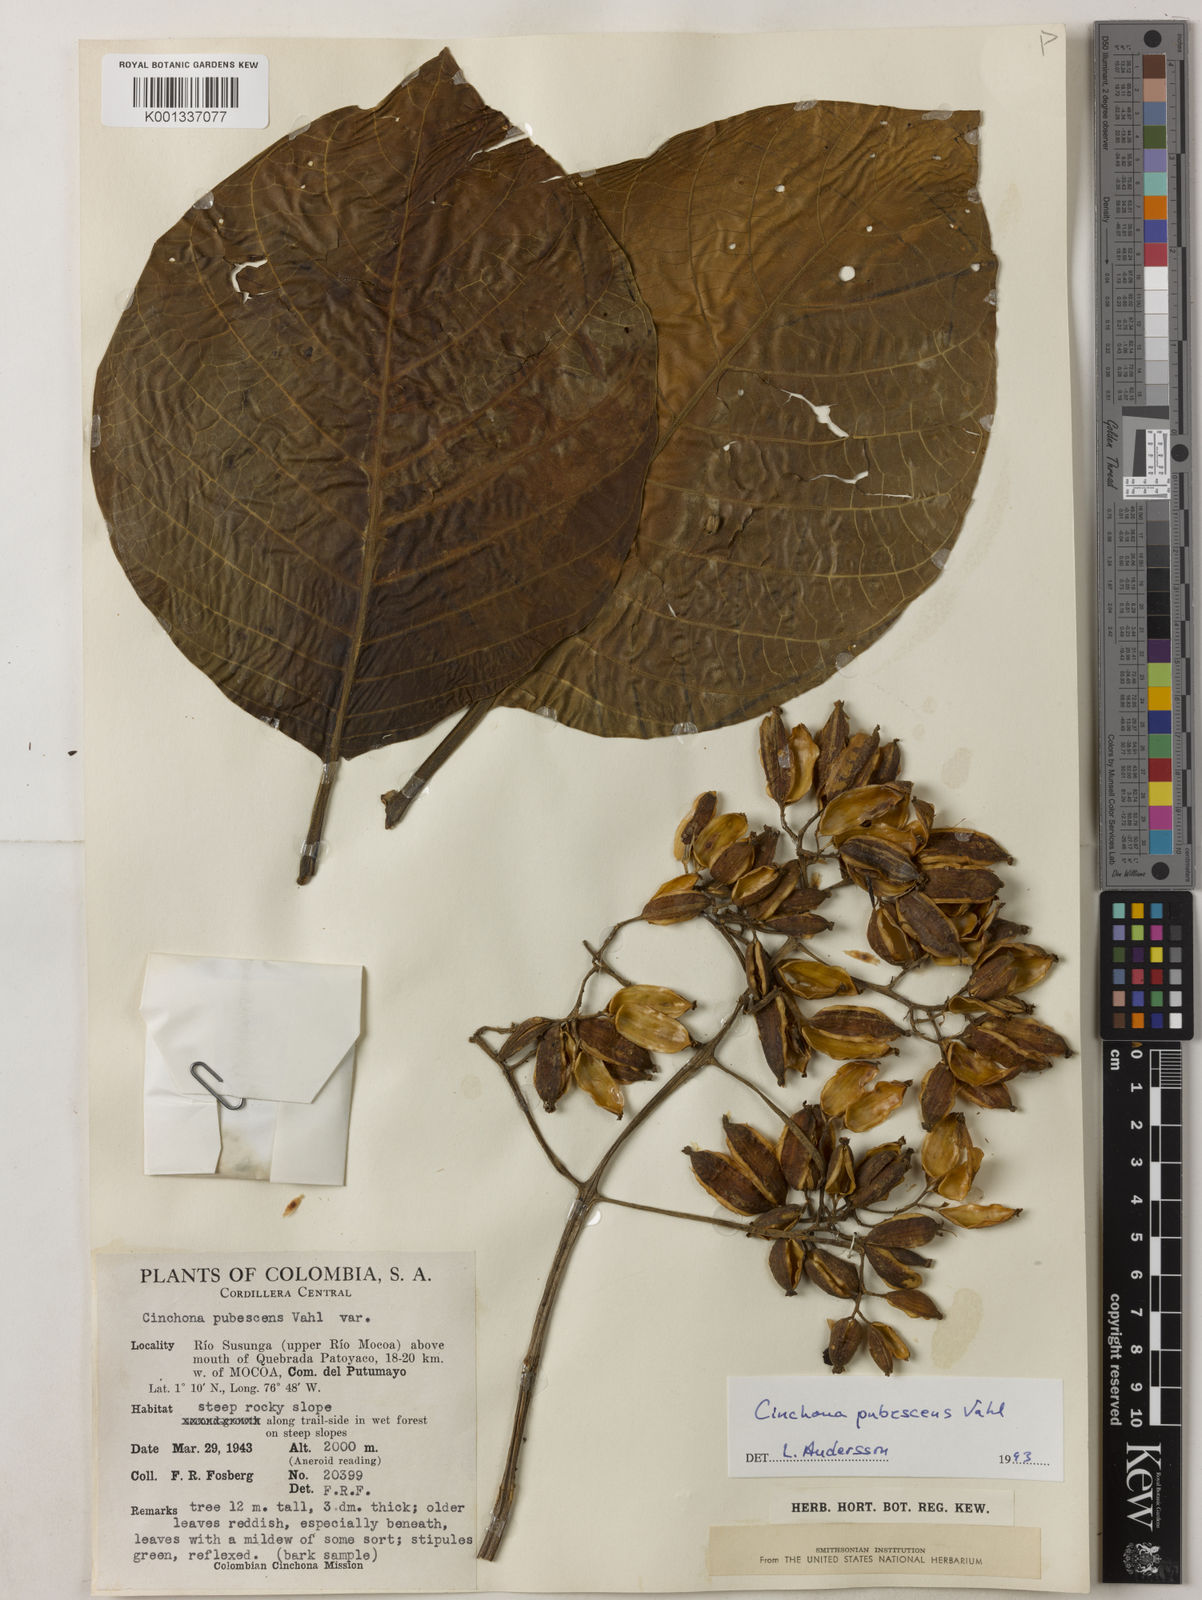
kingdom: Plantae
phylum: Tracheophyta
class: Magnoliopsida
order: Gentianales
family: Rubiaceae
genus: Cinchona
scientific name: Cinchona pubescens
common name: Quinine
